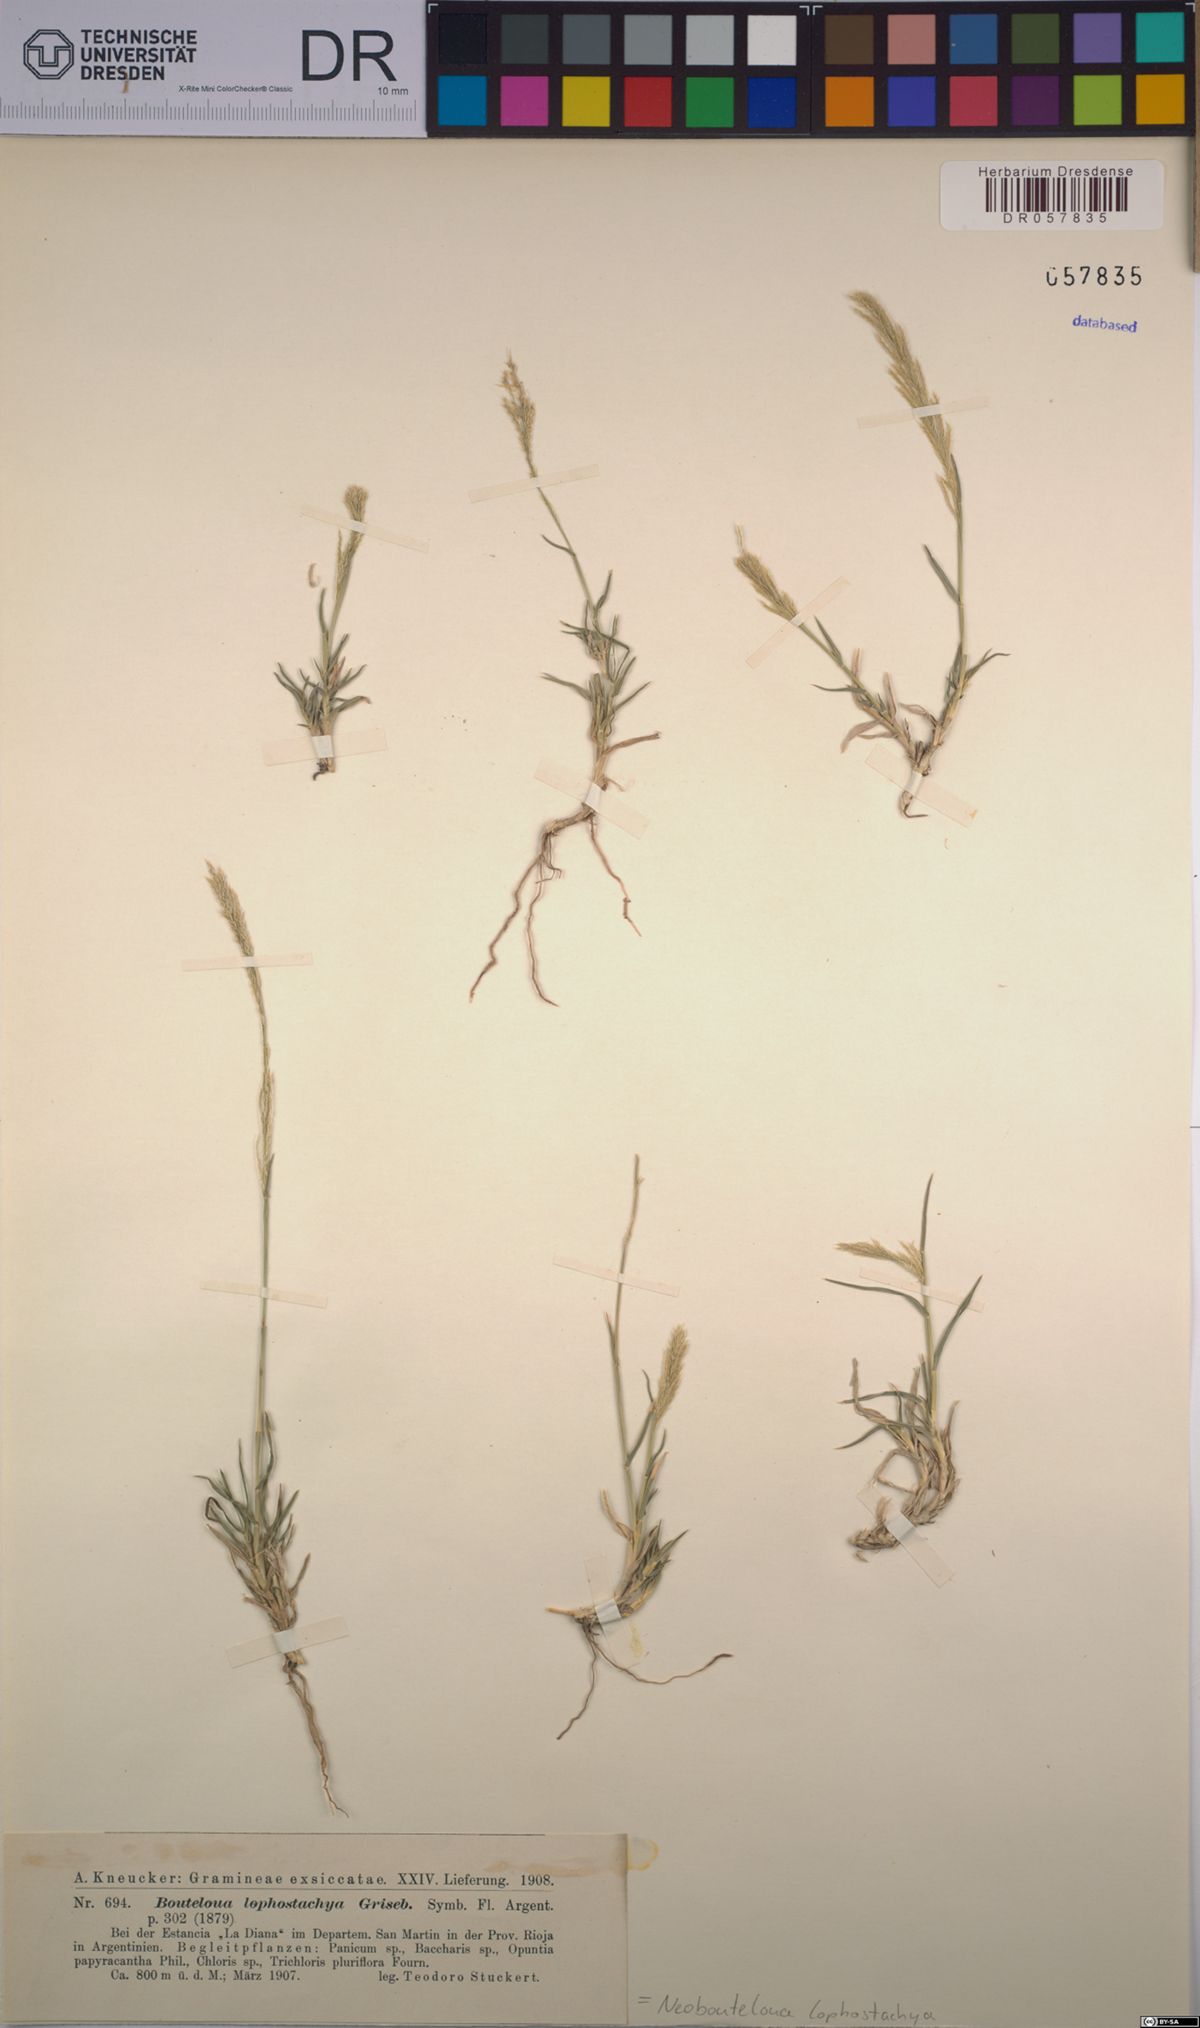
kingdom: Plantae
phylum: Tracheophyta
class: Liliopsida
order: Poales
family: Poaceae
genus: Neobouteloua
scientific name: Neobouteloua lophostachya
